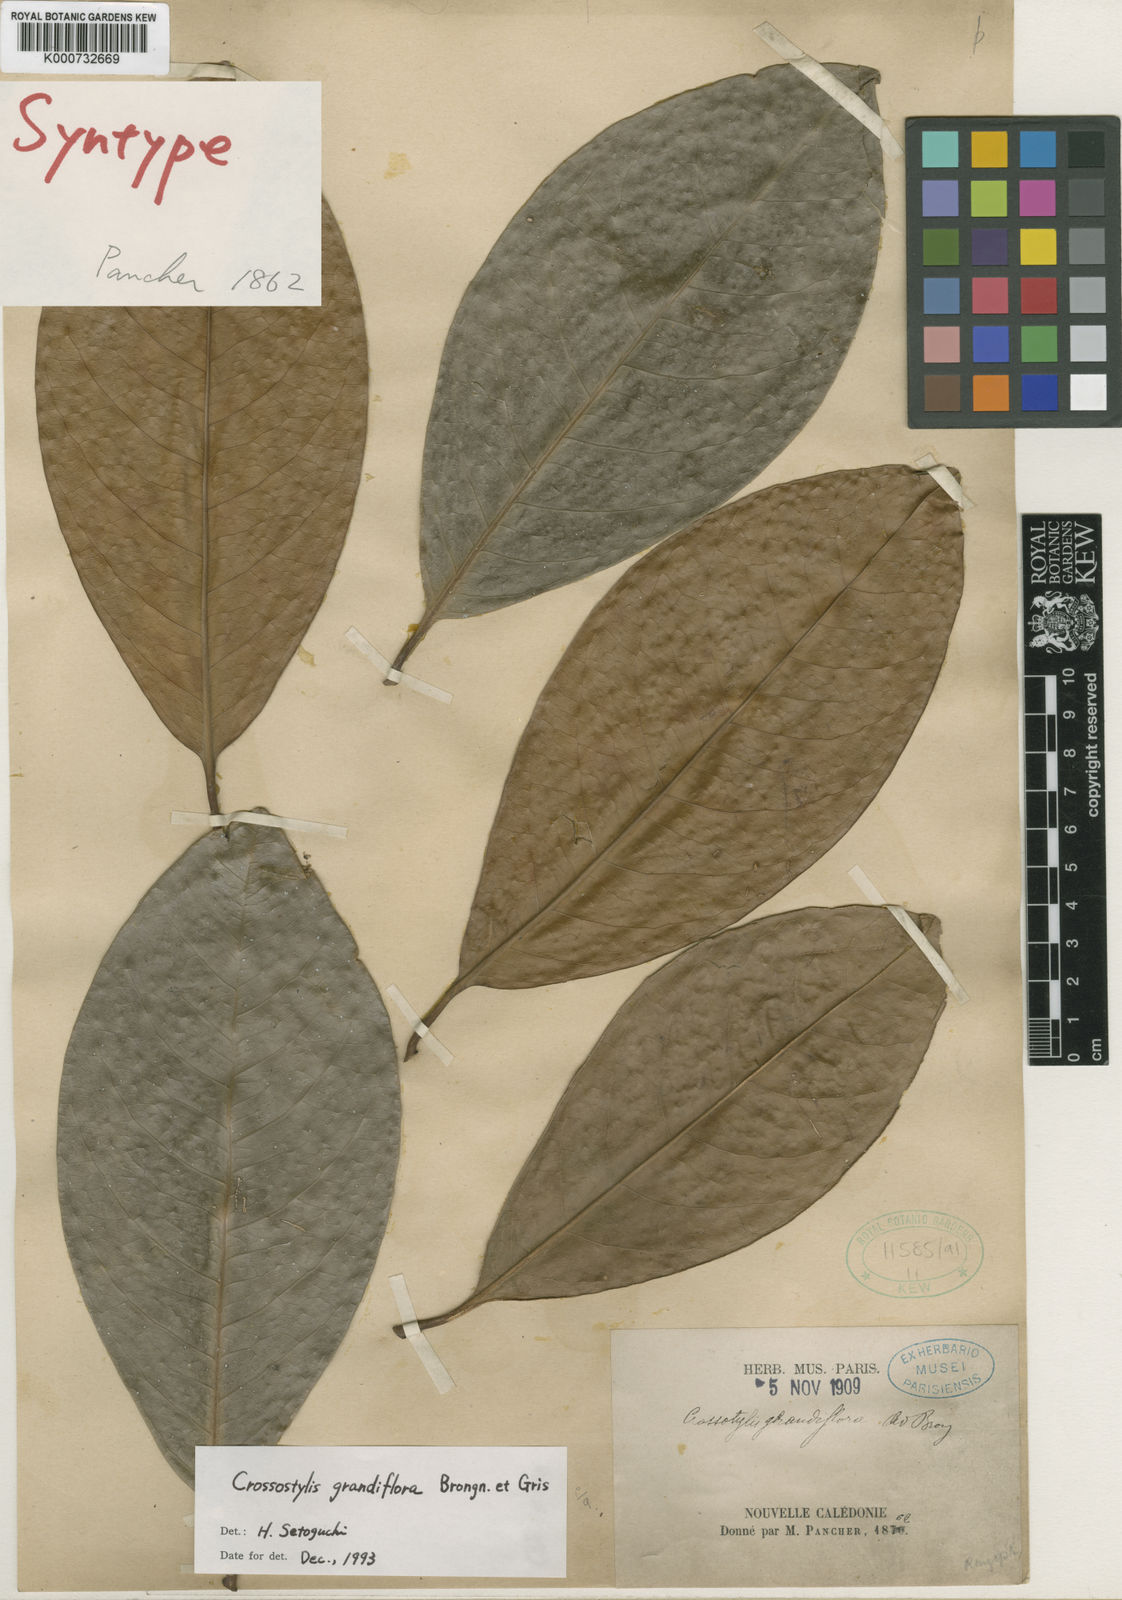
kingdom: Plantae
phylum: Tracheophyta
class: Magnoliopsida
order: Malpighiales
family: Rhizophoraceae
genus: Crossostylis
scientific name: Crossostylis grandiflora
